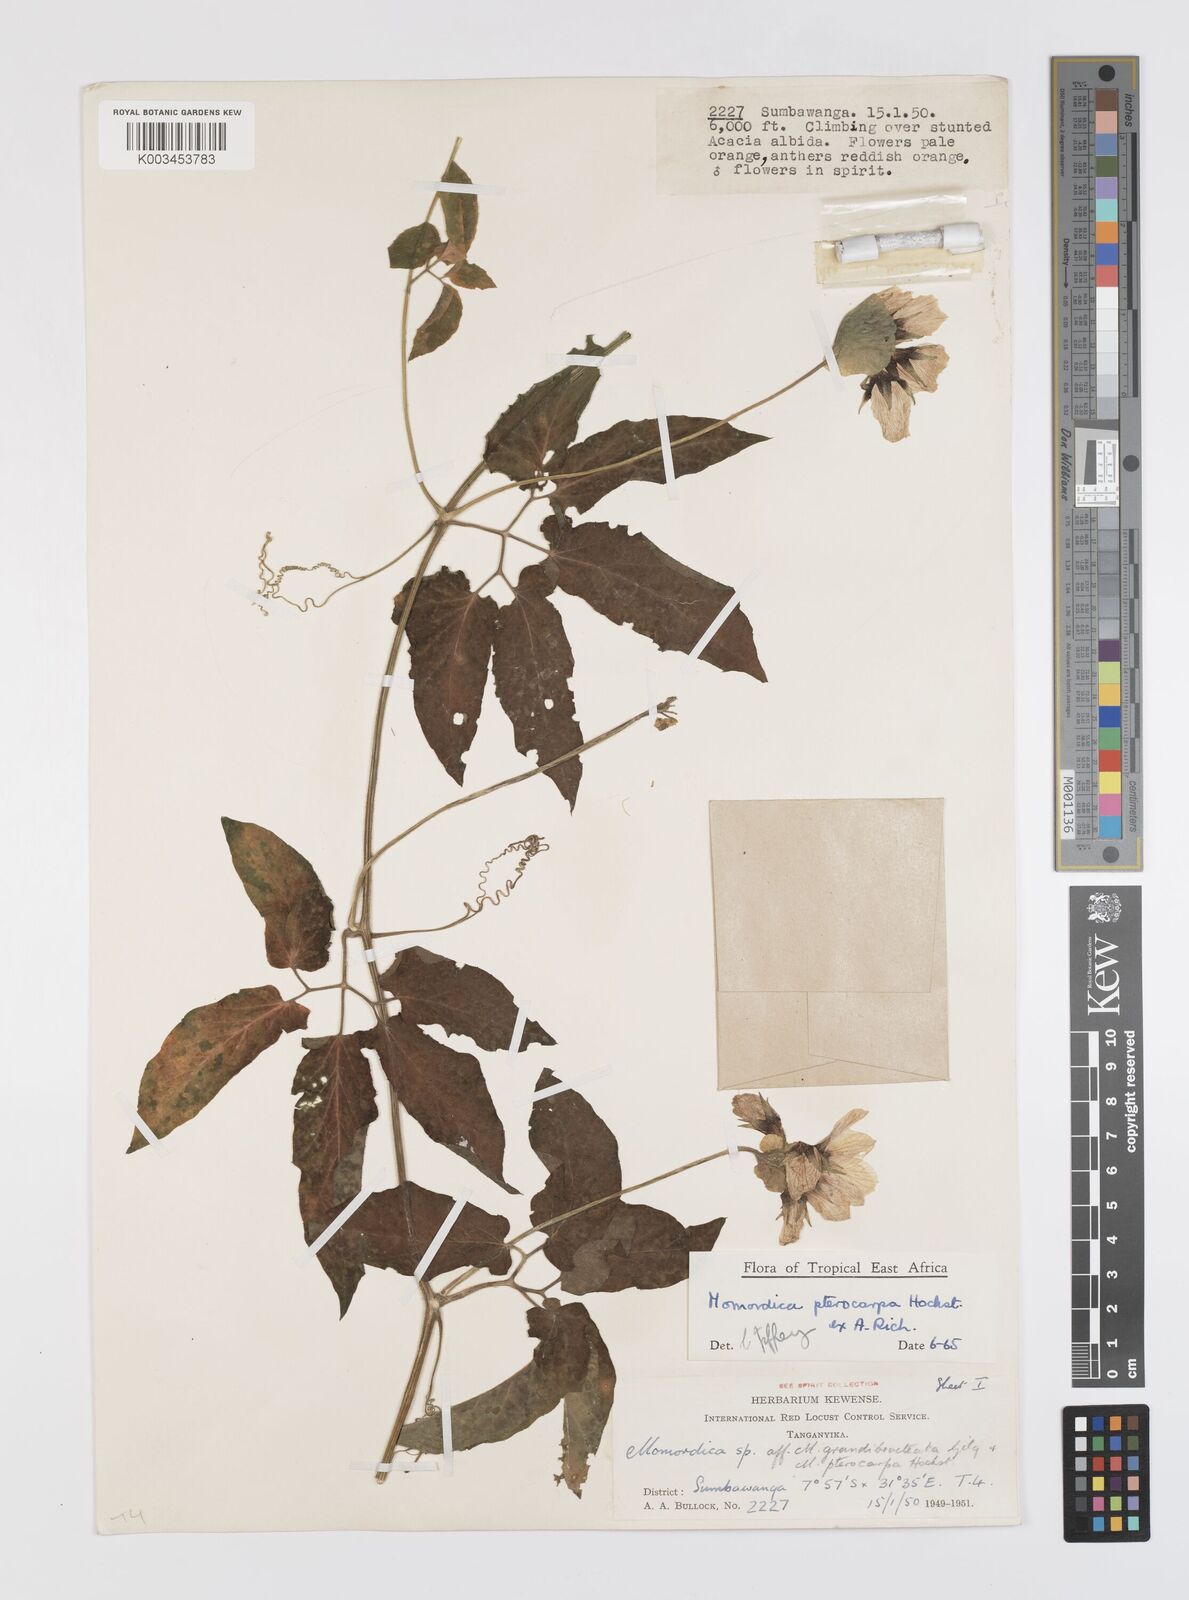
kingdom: Plantae
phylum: Tracheophyta
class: Magnoliopsida
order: Cucurbitales
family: Cucurbitaceae
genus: Momordica
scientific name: Momordica pterocarpa
